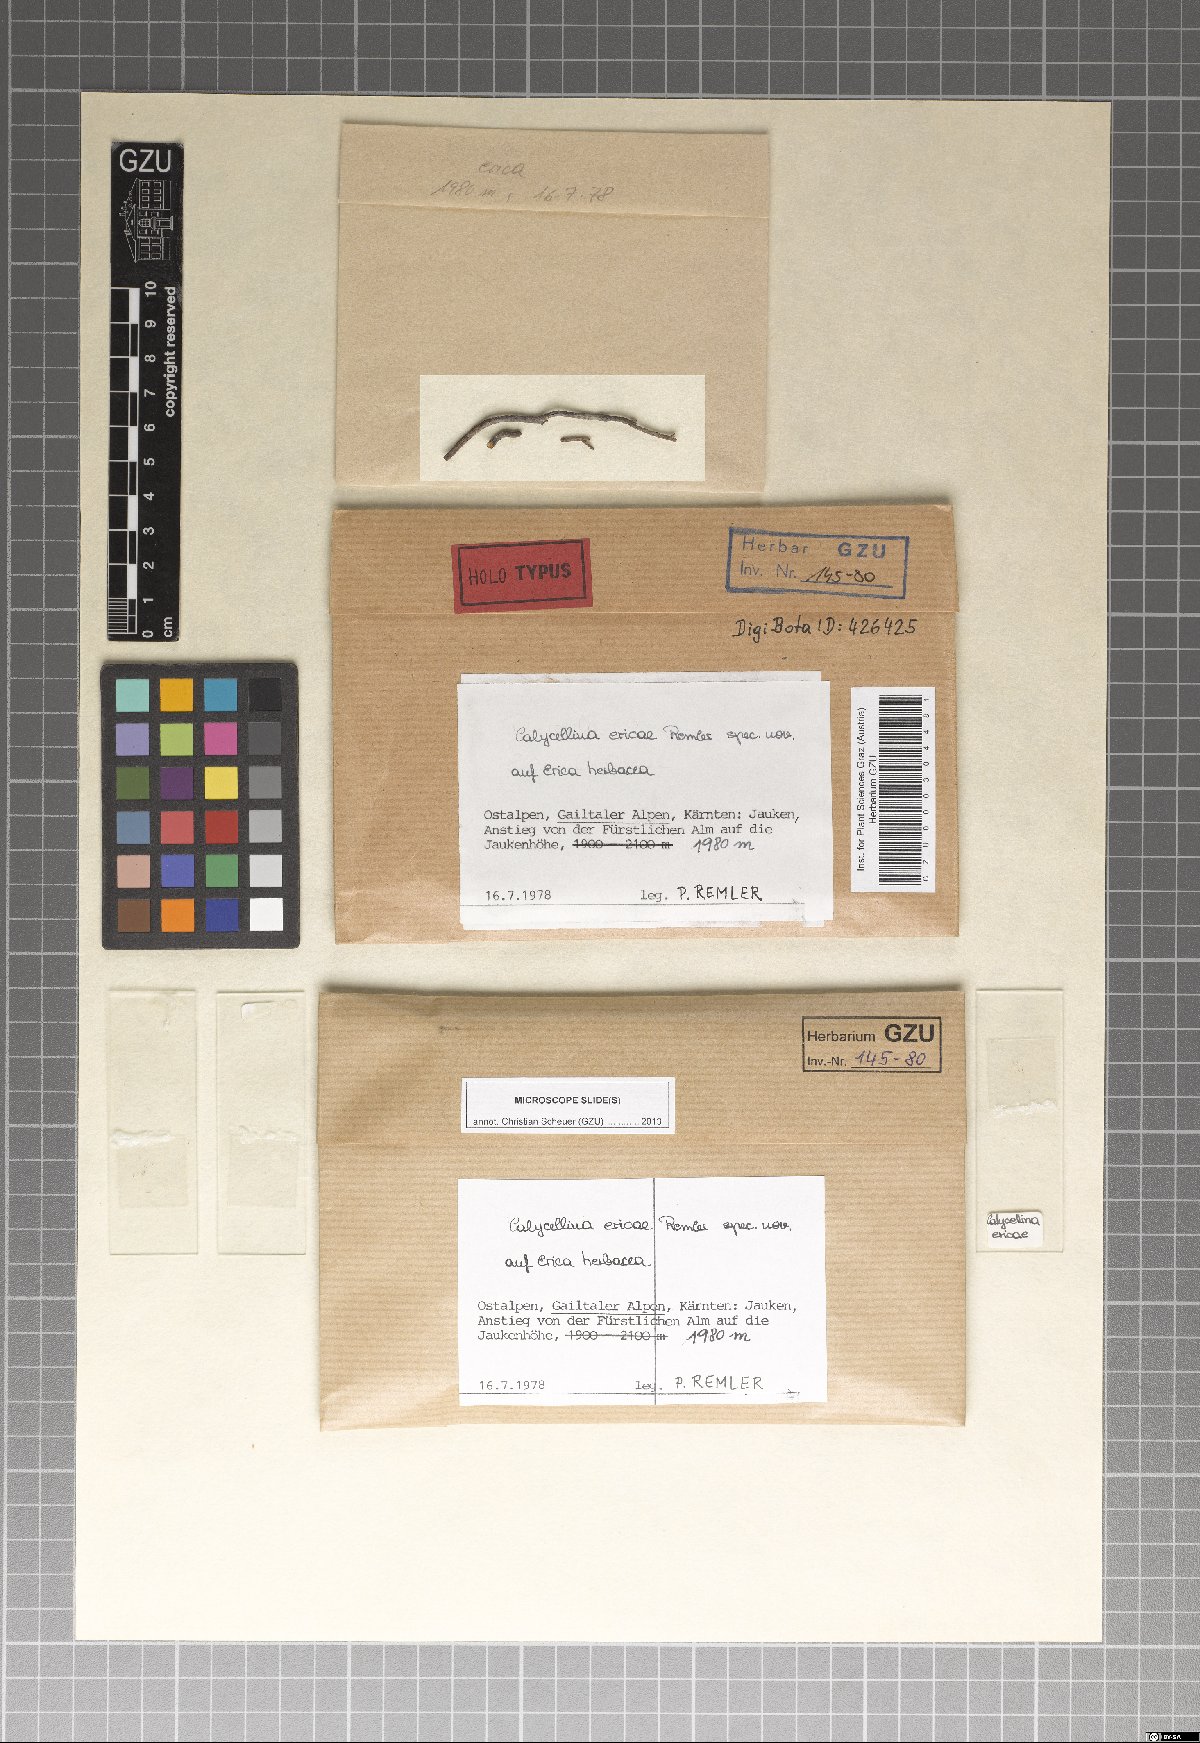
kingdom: Fungi
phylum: Ascomycota
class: Leotiomycetes
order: Helotiales
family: Pezizellaceae
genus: Calycellina
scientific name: Calycellina ericae
